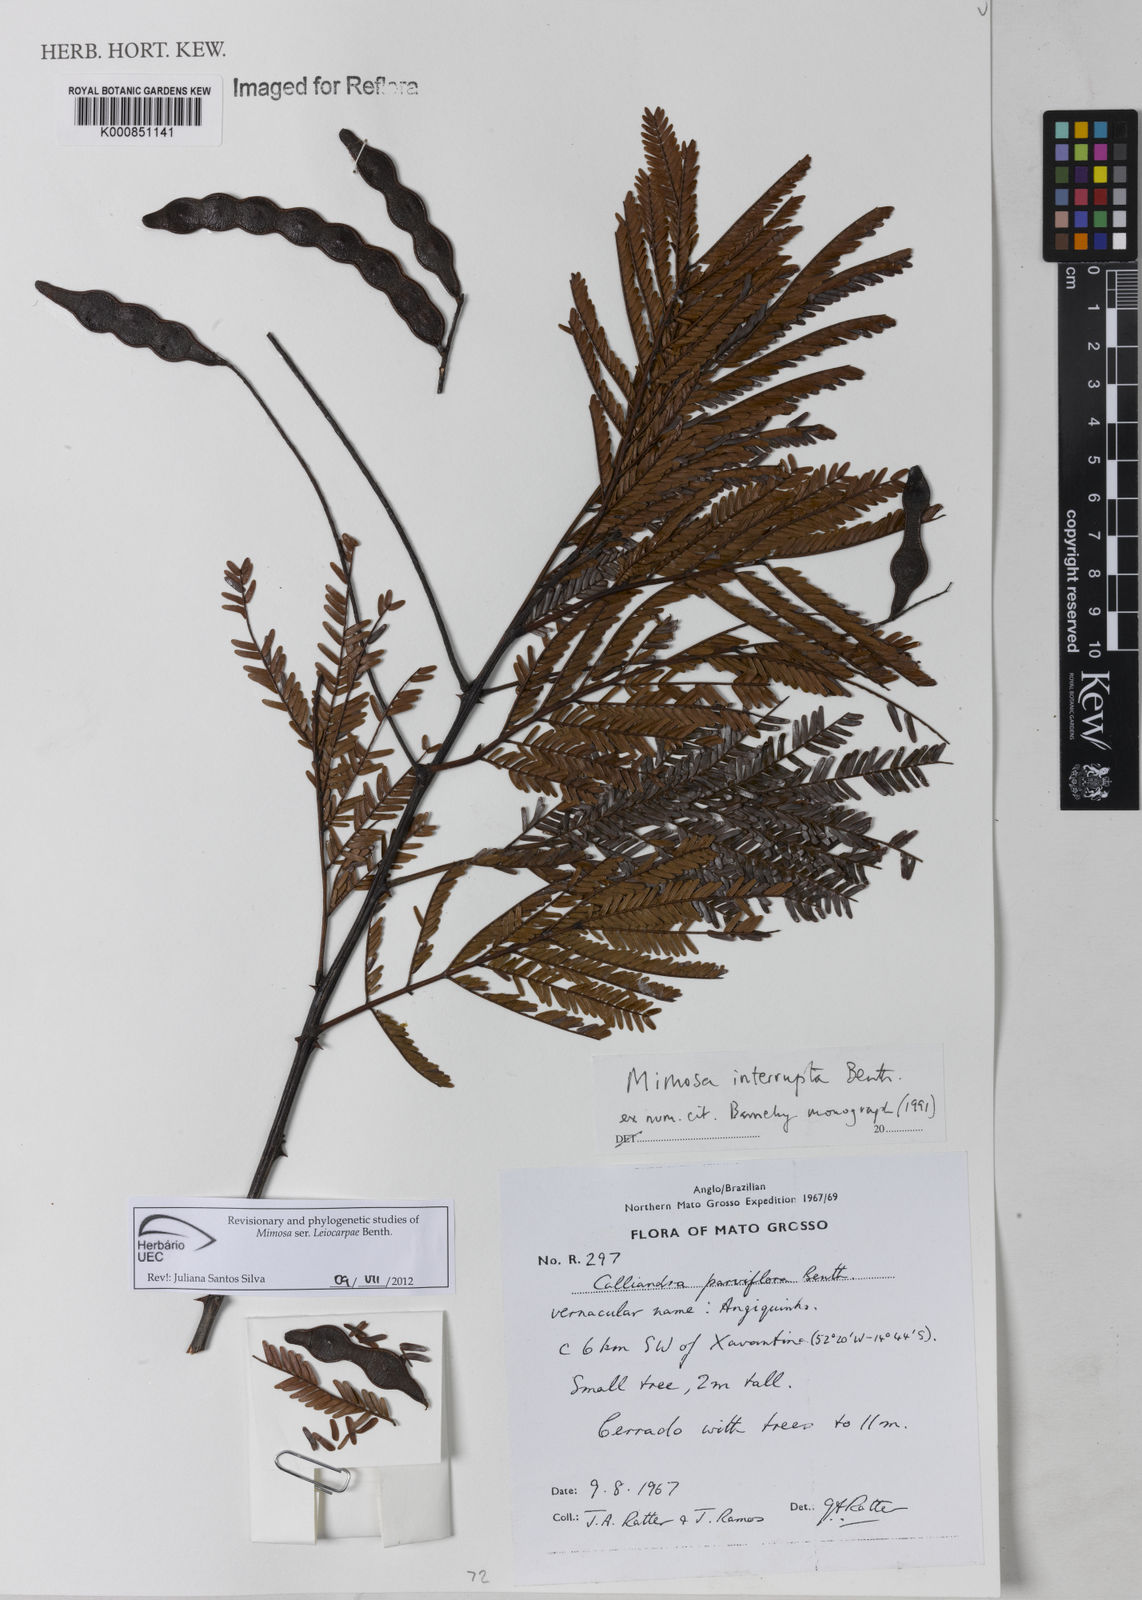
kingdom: Plantae
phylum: Tracheophyta
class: Magnoliopsida
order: Fabales
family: Fabaceae
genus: Mimosa
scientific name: Mimosa interrupta
